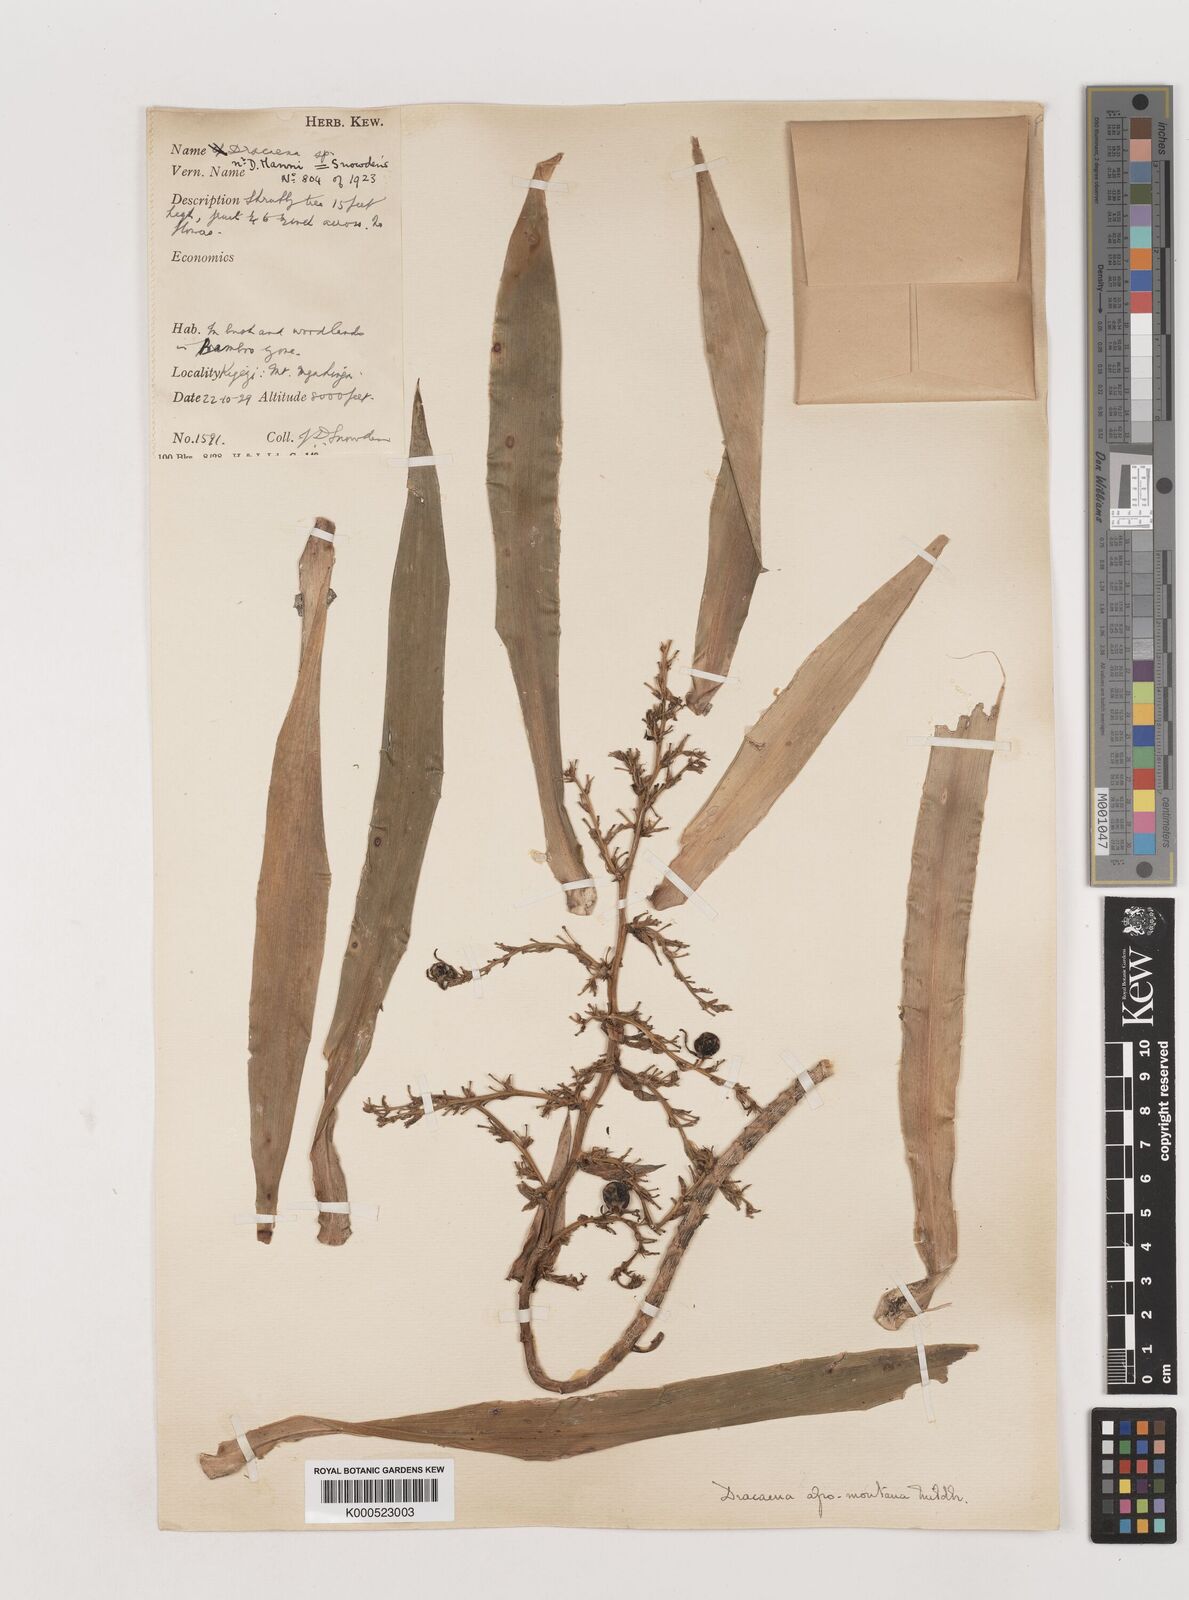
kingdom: Plantae
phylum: Tracheophyta
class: Liliopsida
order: Asparagales
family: Asparagaceae
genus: Dracaena
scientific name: Dracaena afromontana
